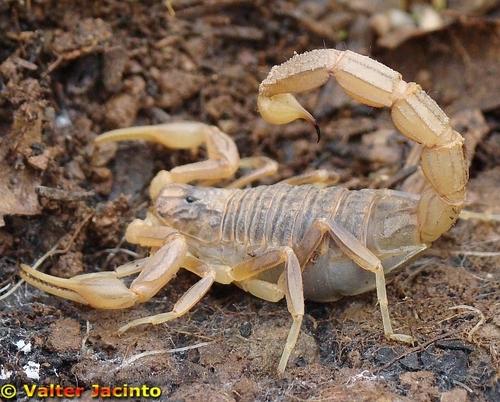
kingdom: Animalia
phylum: Arthropoda
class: Arachnida
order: Scorpiones
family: Buthidae
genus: Buthus
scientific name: Buthus ibericus
